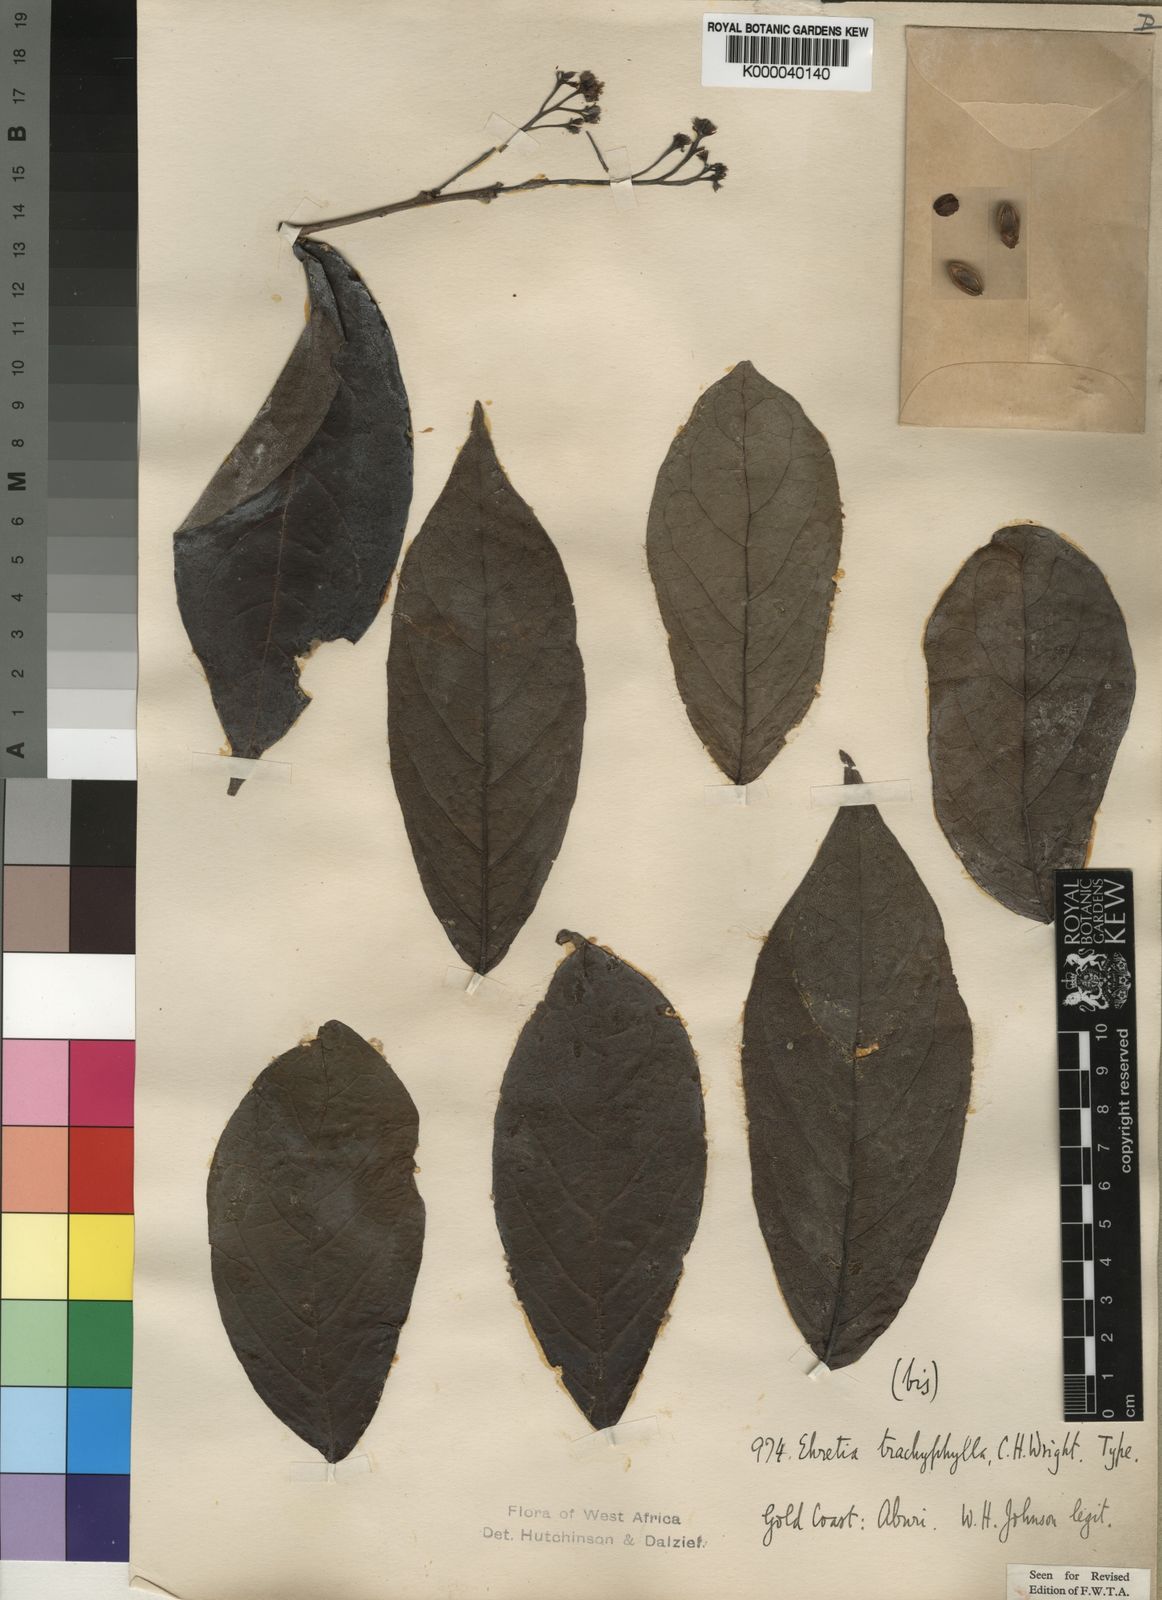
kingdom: Plantae
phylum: Tracheophyta
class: Magnoliopsida
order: Boraginales
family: Ehretiaceae
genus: Ehretia
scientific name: Ehretia trachyphylla
